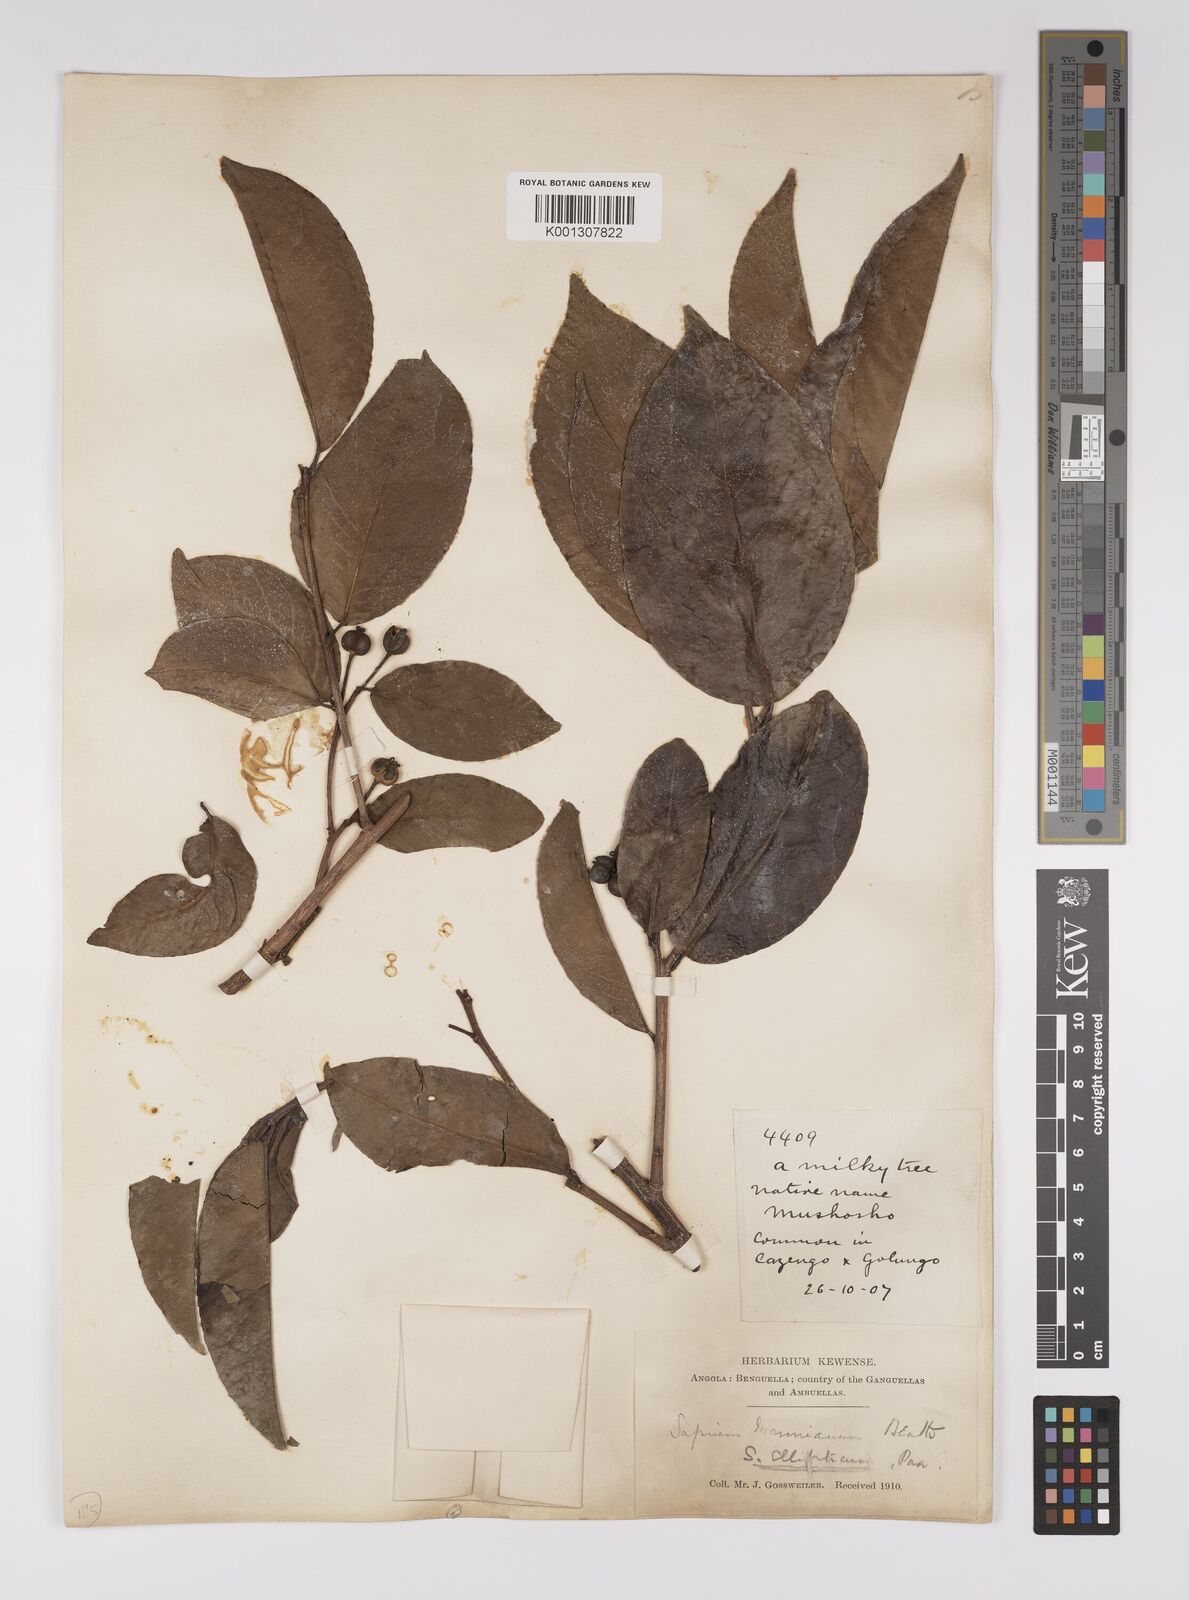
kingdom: Plantae
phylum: Tracheophyta
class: Magnoliopsida
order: Malpighiales
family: Euphorbiaceae
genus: Shirakiopsis
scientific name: Shirakiopsis elliptica
